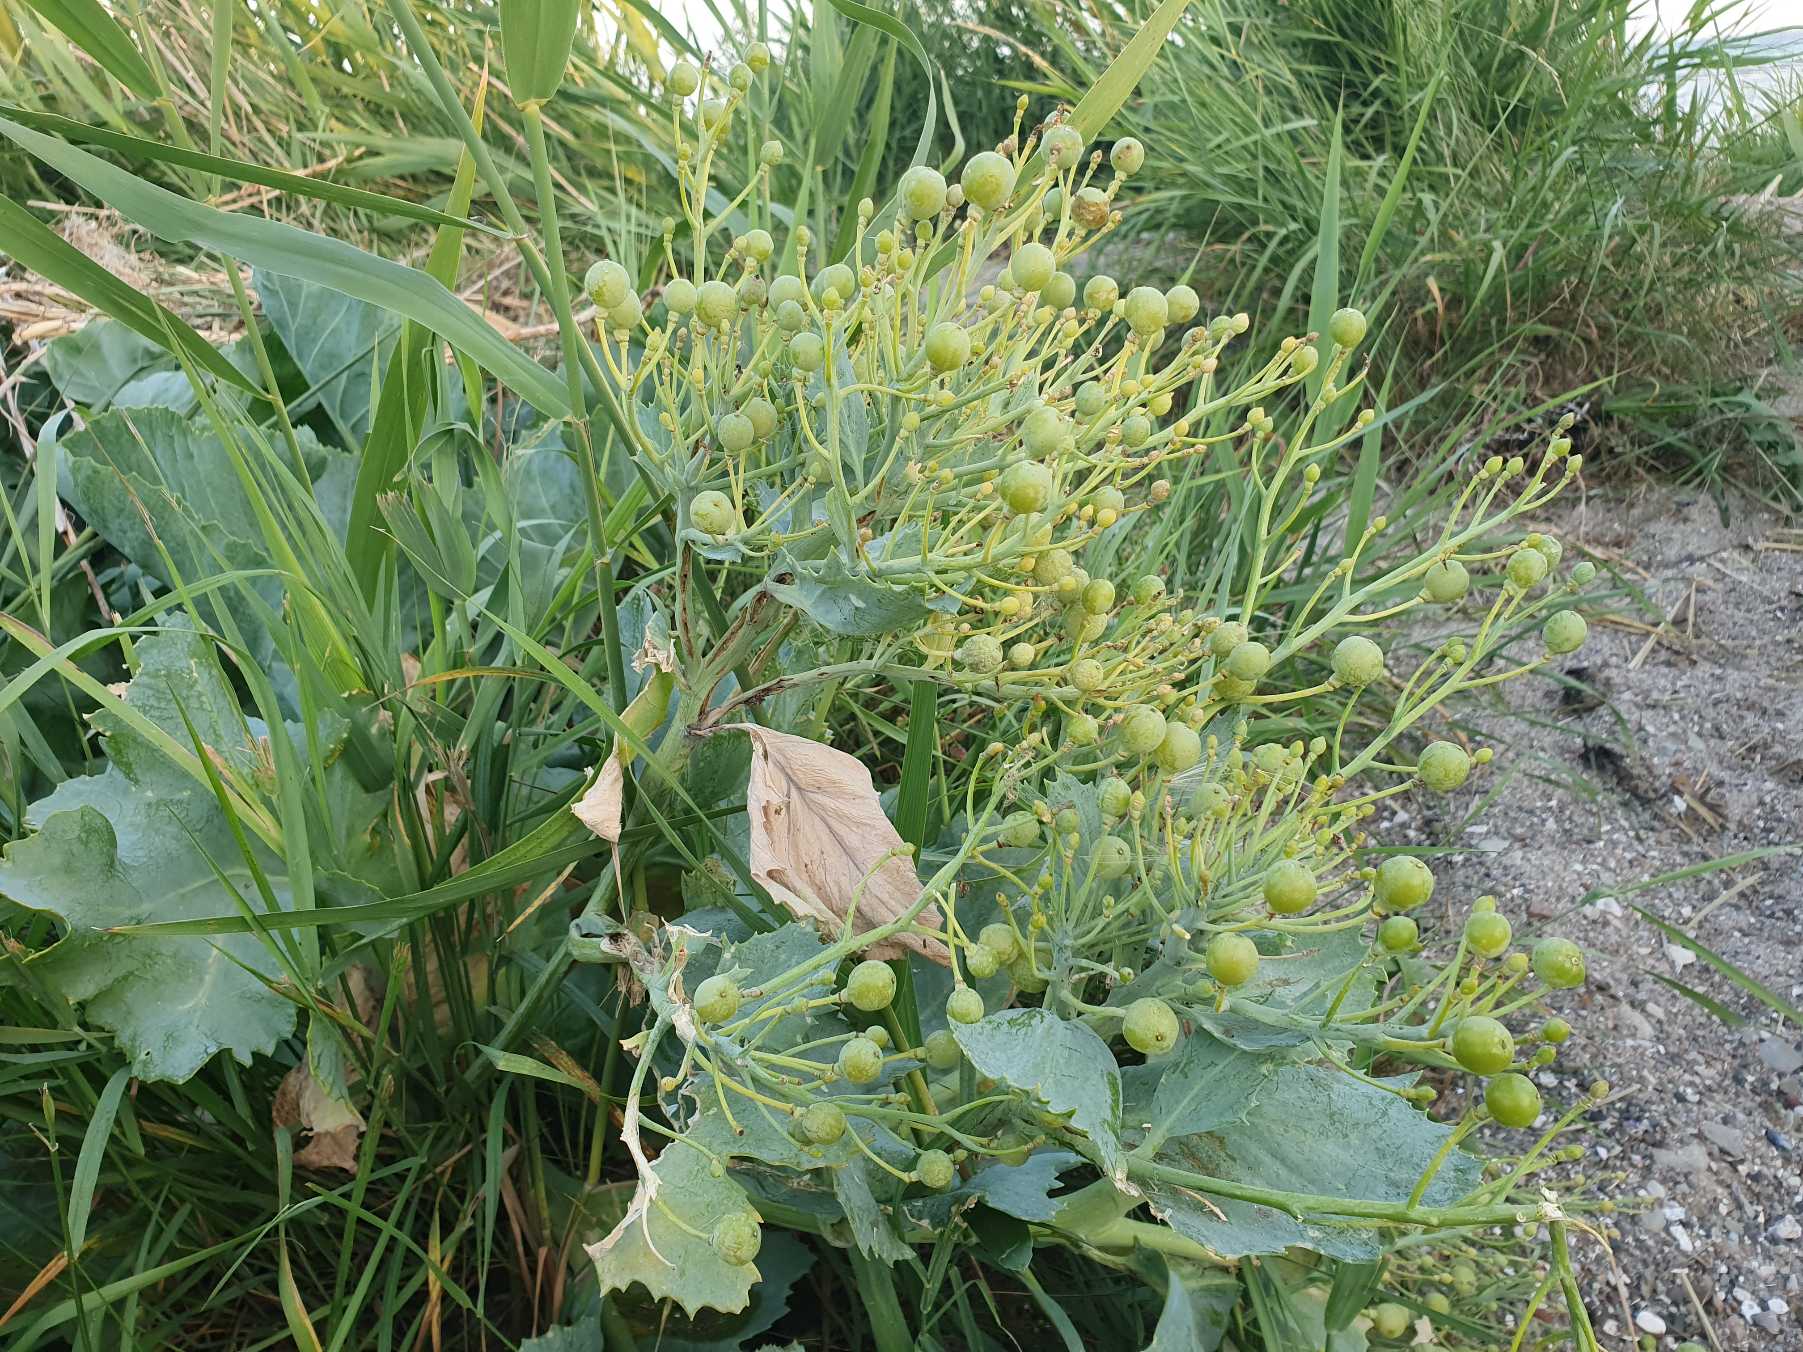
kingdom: Plantae
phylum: Tracheophyta
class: Magnoliopsida
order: Brassicales
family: Brassicaceae
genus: Crambe
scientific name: Crambe maritima
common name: Strandkål
